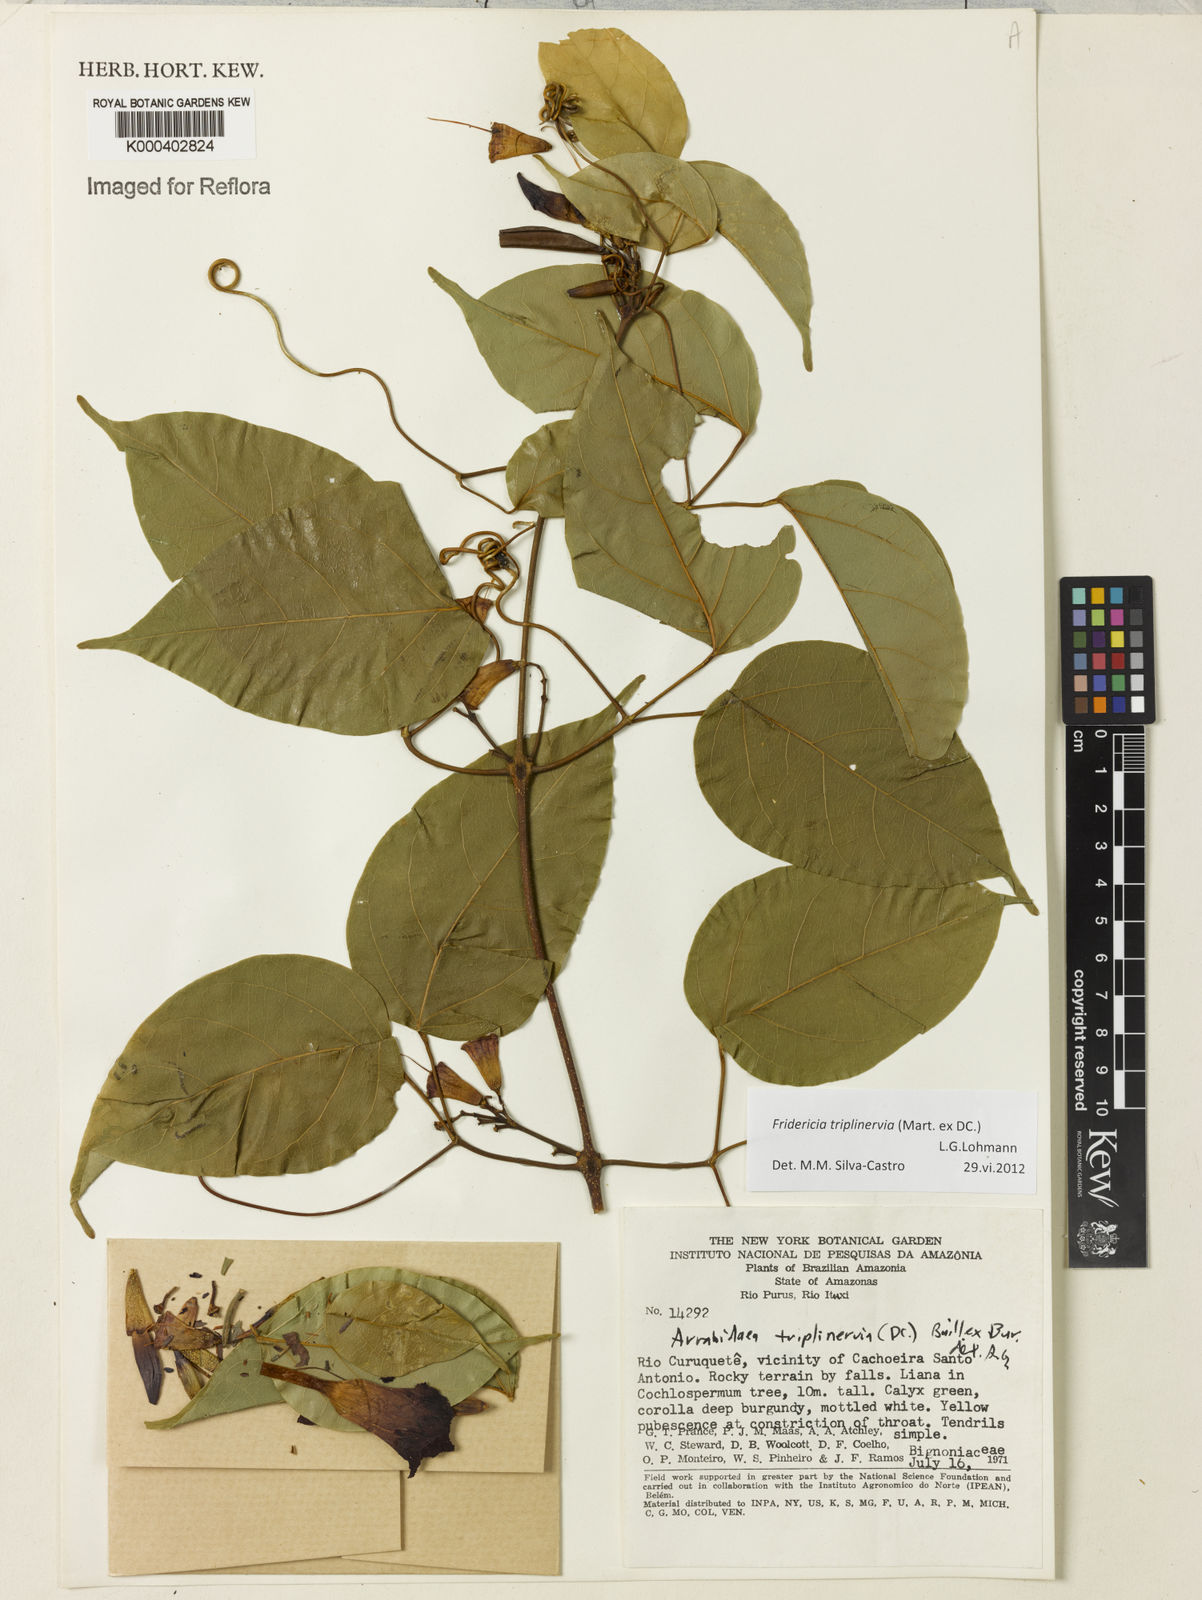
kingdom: Plantae
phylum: Tracheophyta
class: Magnoliopsida
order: Lamiales
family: Bignoniaceae
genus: Fridericia
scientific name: Fridericia triplinervia
